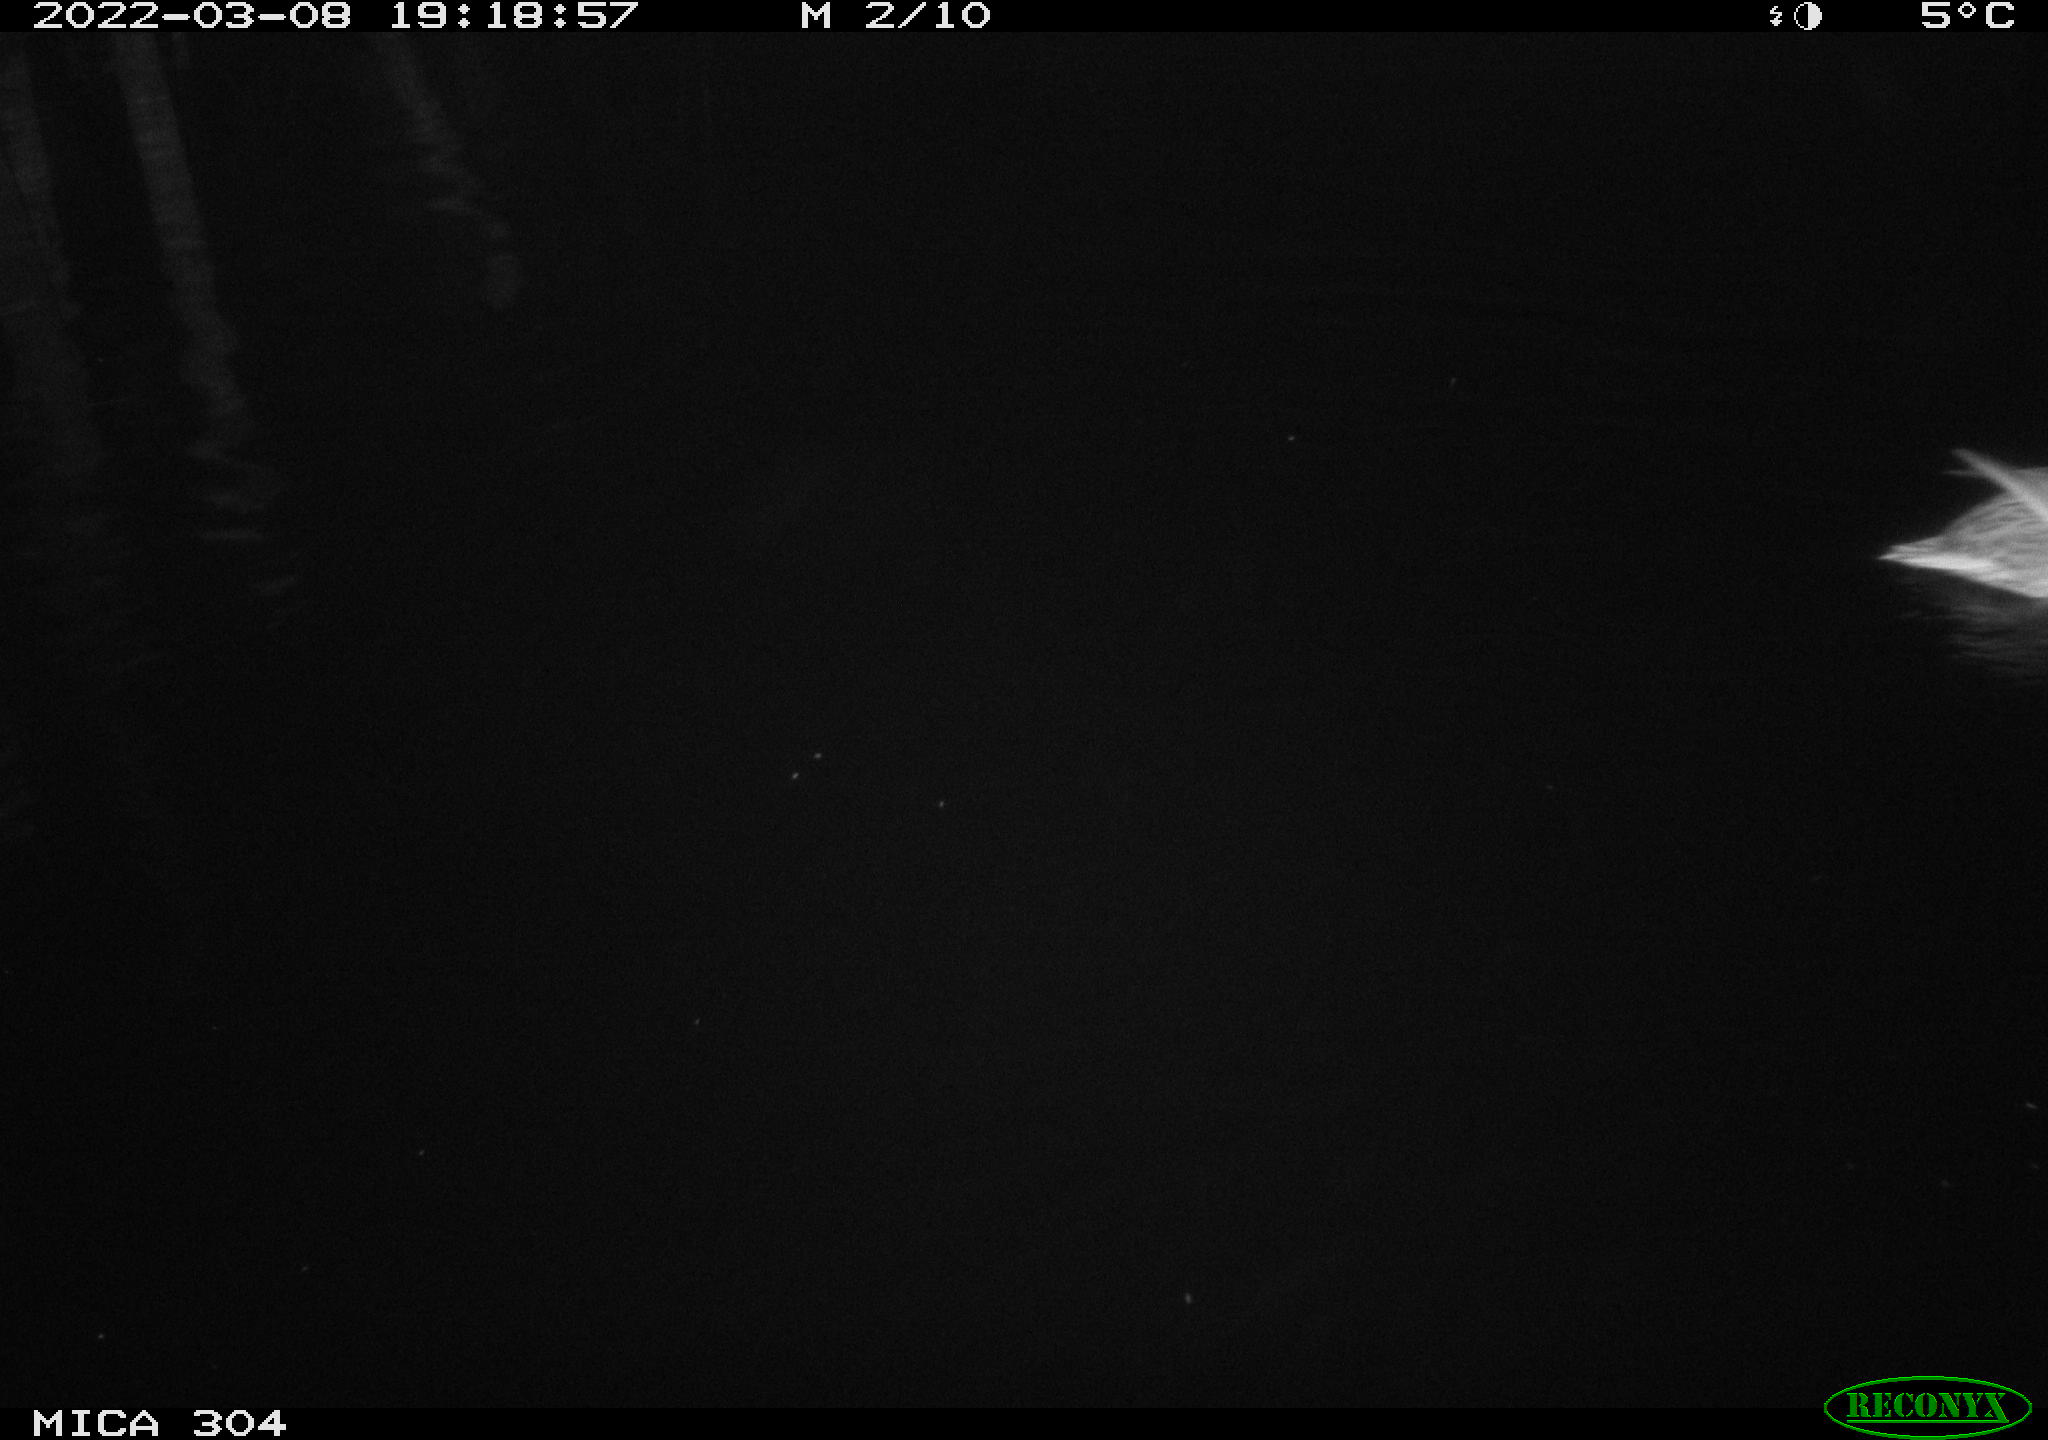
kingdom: Animalia
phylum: Chordata
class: Mammalia
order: Rodentia
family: Muridae
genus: Rattus
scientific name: Rattus norvegicus
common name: Brown rat
